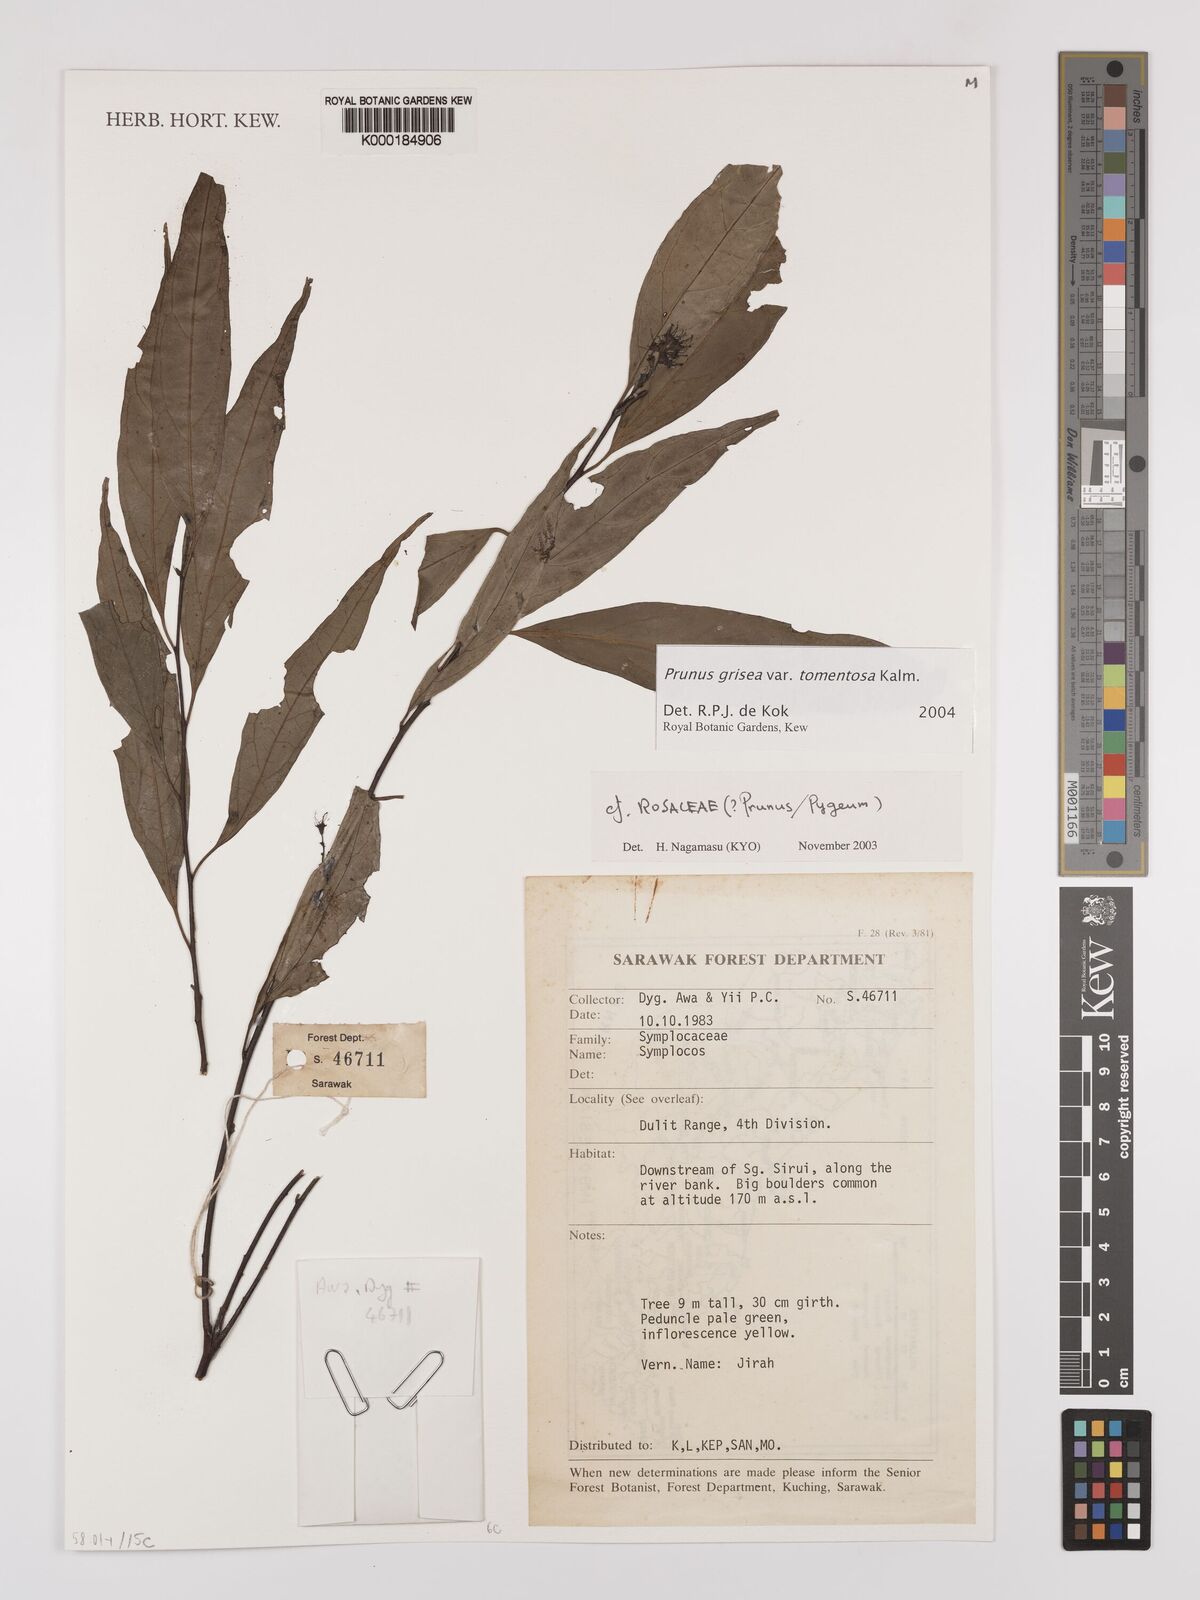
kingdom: Plantae
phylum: Tracheophyta
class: Magnoliopsida
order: Rosales
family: Rosaceae
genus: Prunus
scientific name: Prunus
